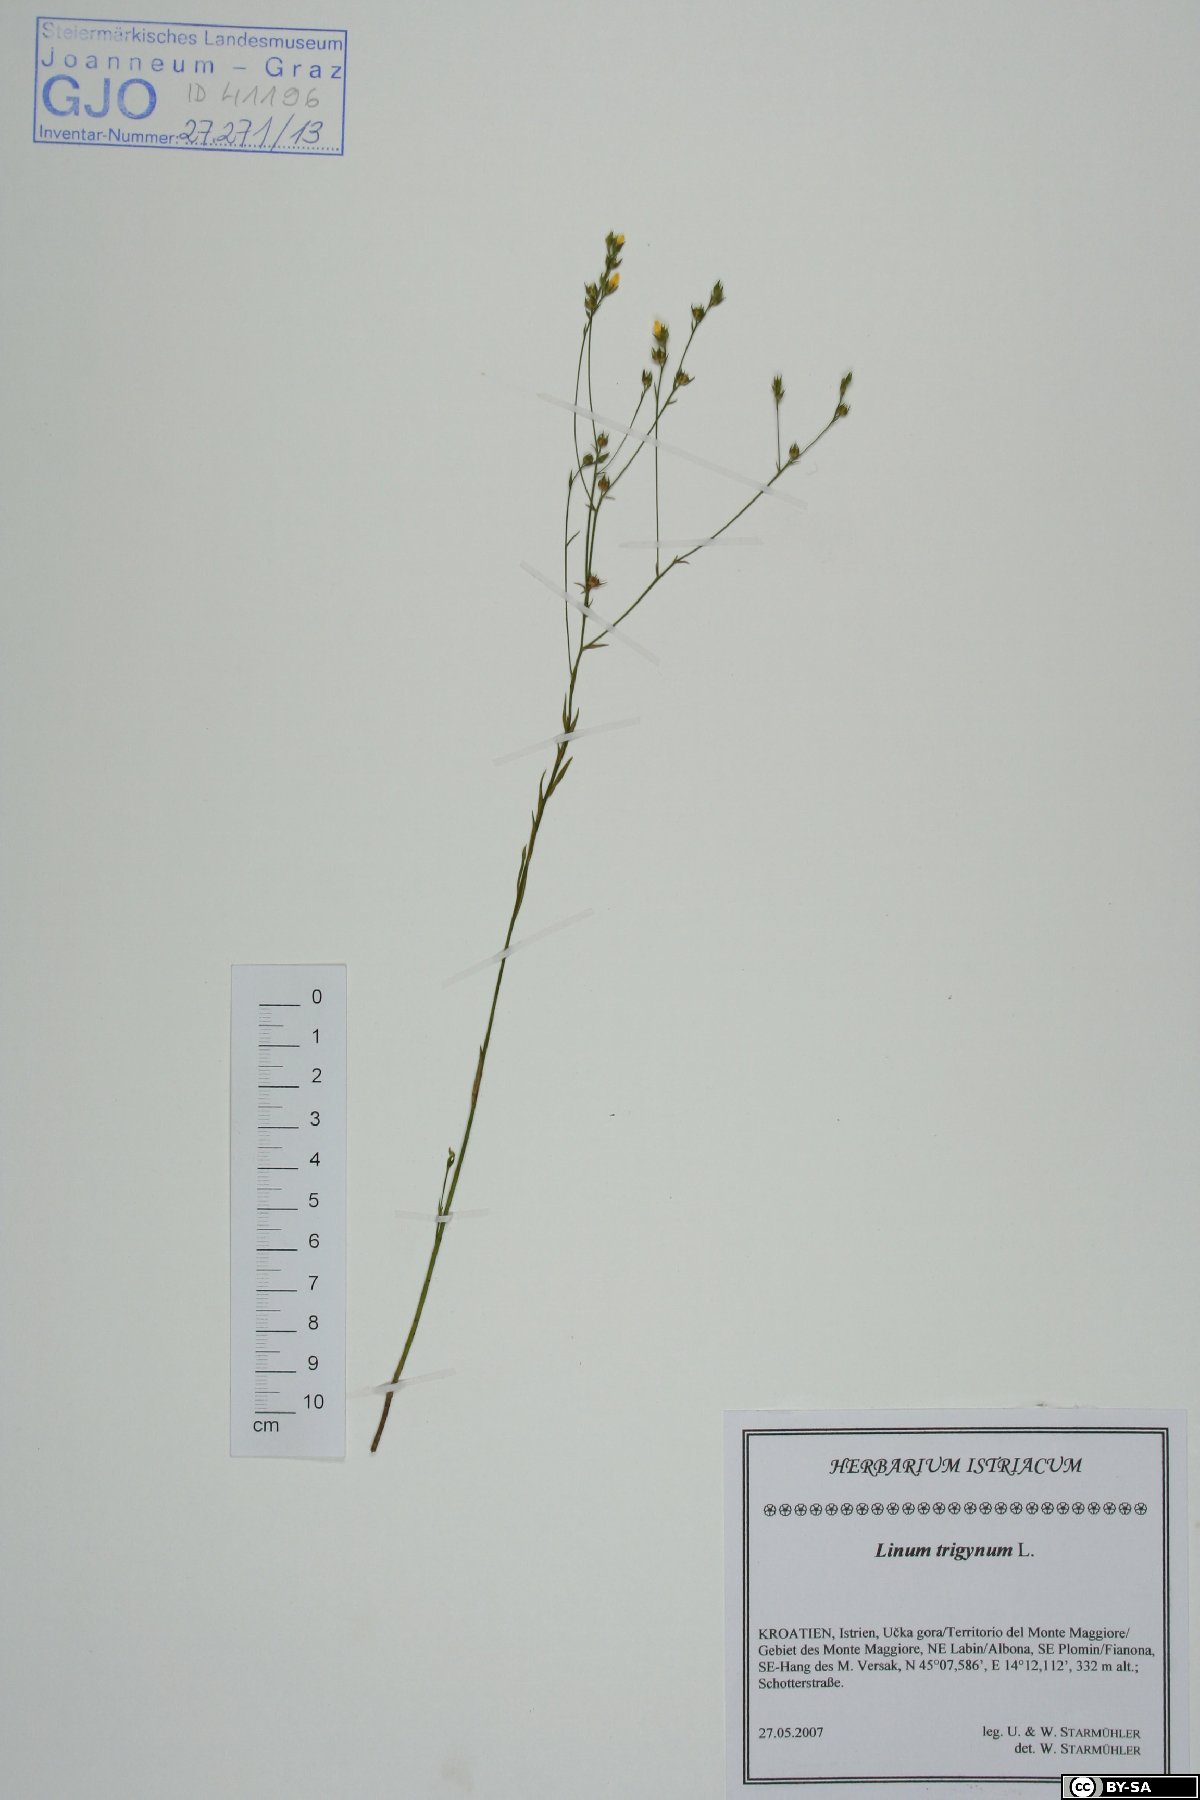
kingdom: Plantae
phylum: Tracheophyta
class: Magnoliopsida
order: Malpighiales
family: Linaceae
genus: Linum
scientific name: Linum trigynum
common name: French flax
